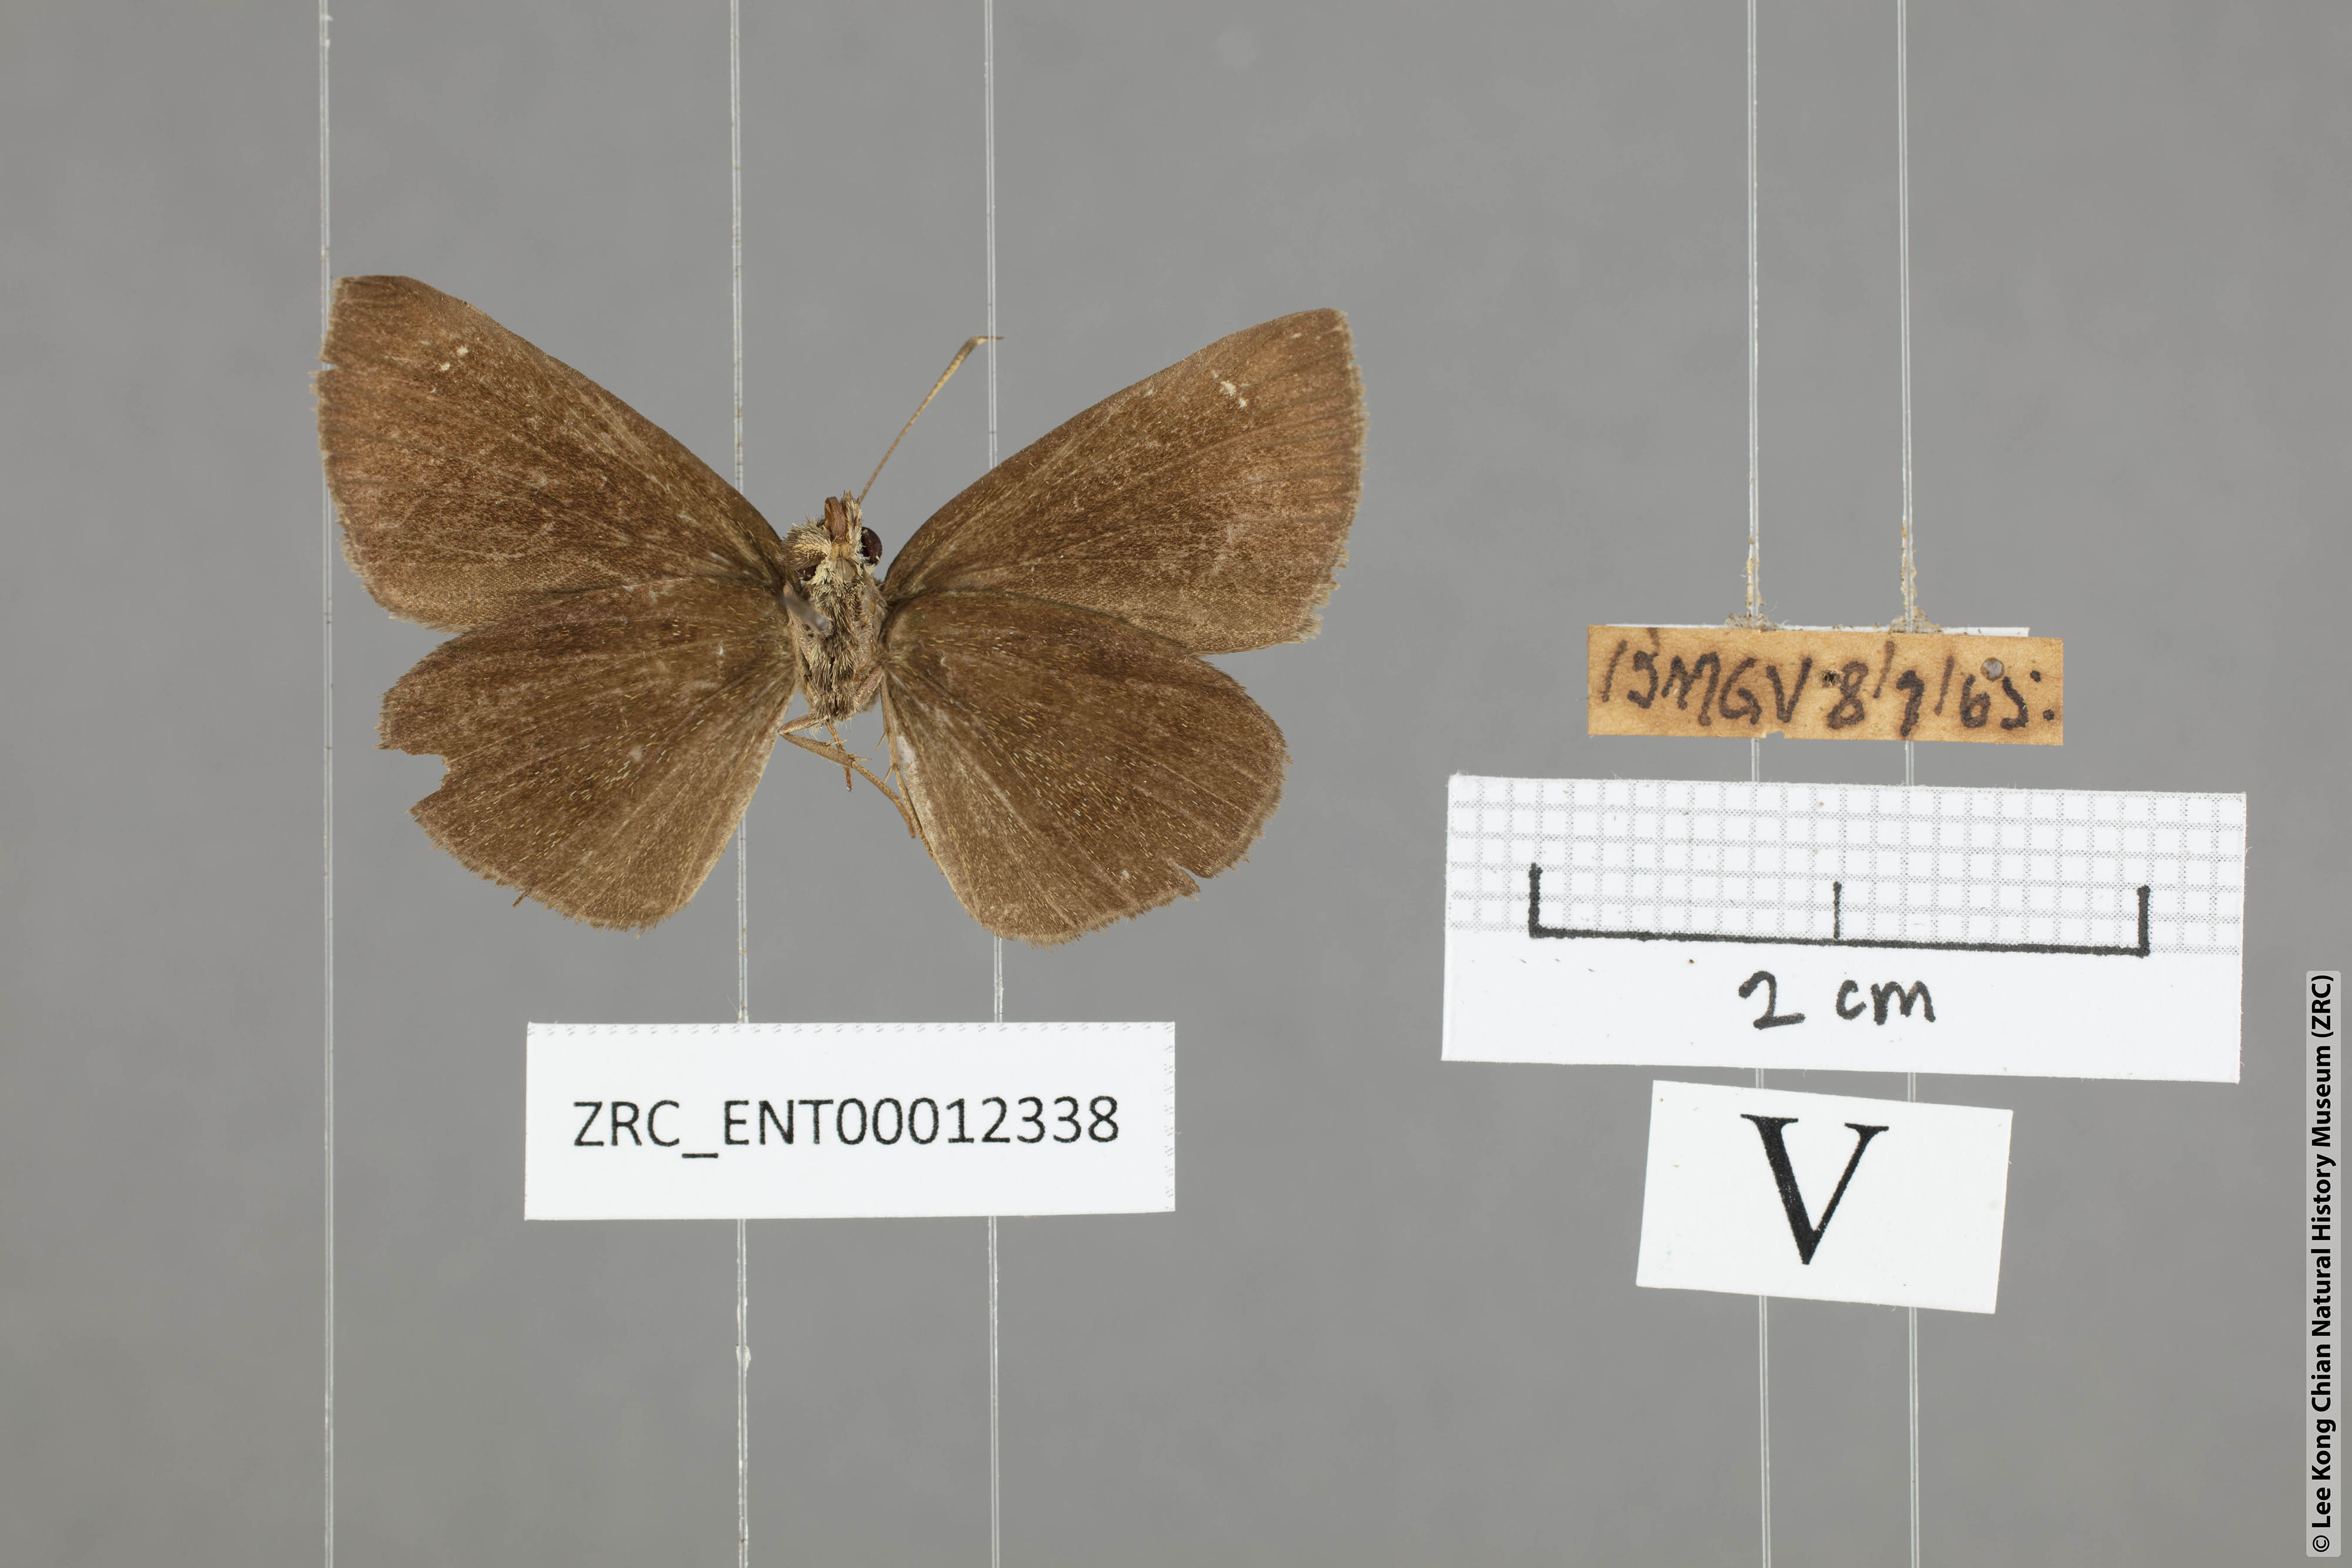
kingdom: Animalia
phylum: Arthropoda
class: Insecta
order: Lepidoptera
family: Hesperiidae
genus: Astictopterus
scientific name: Astictopterus jama
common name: Forest hopper
